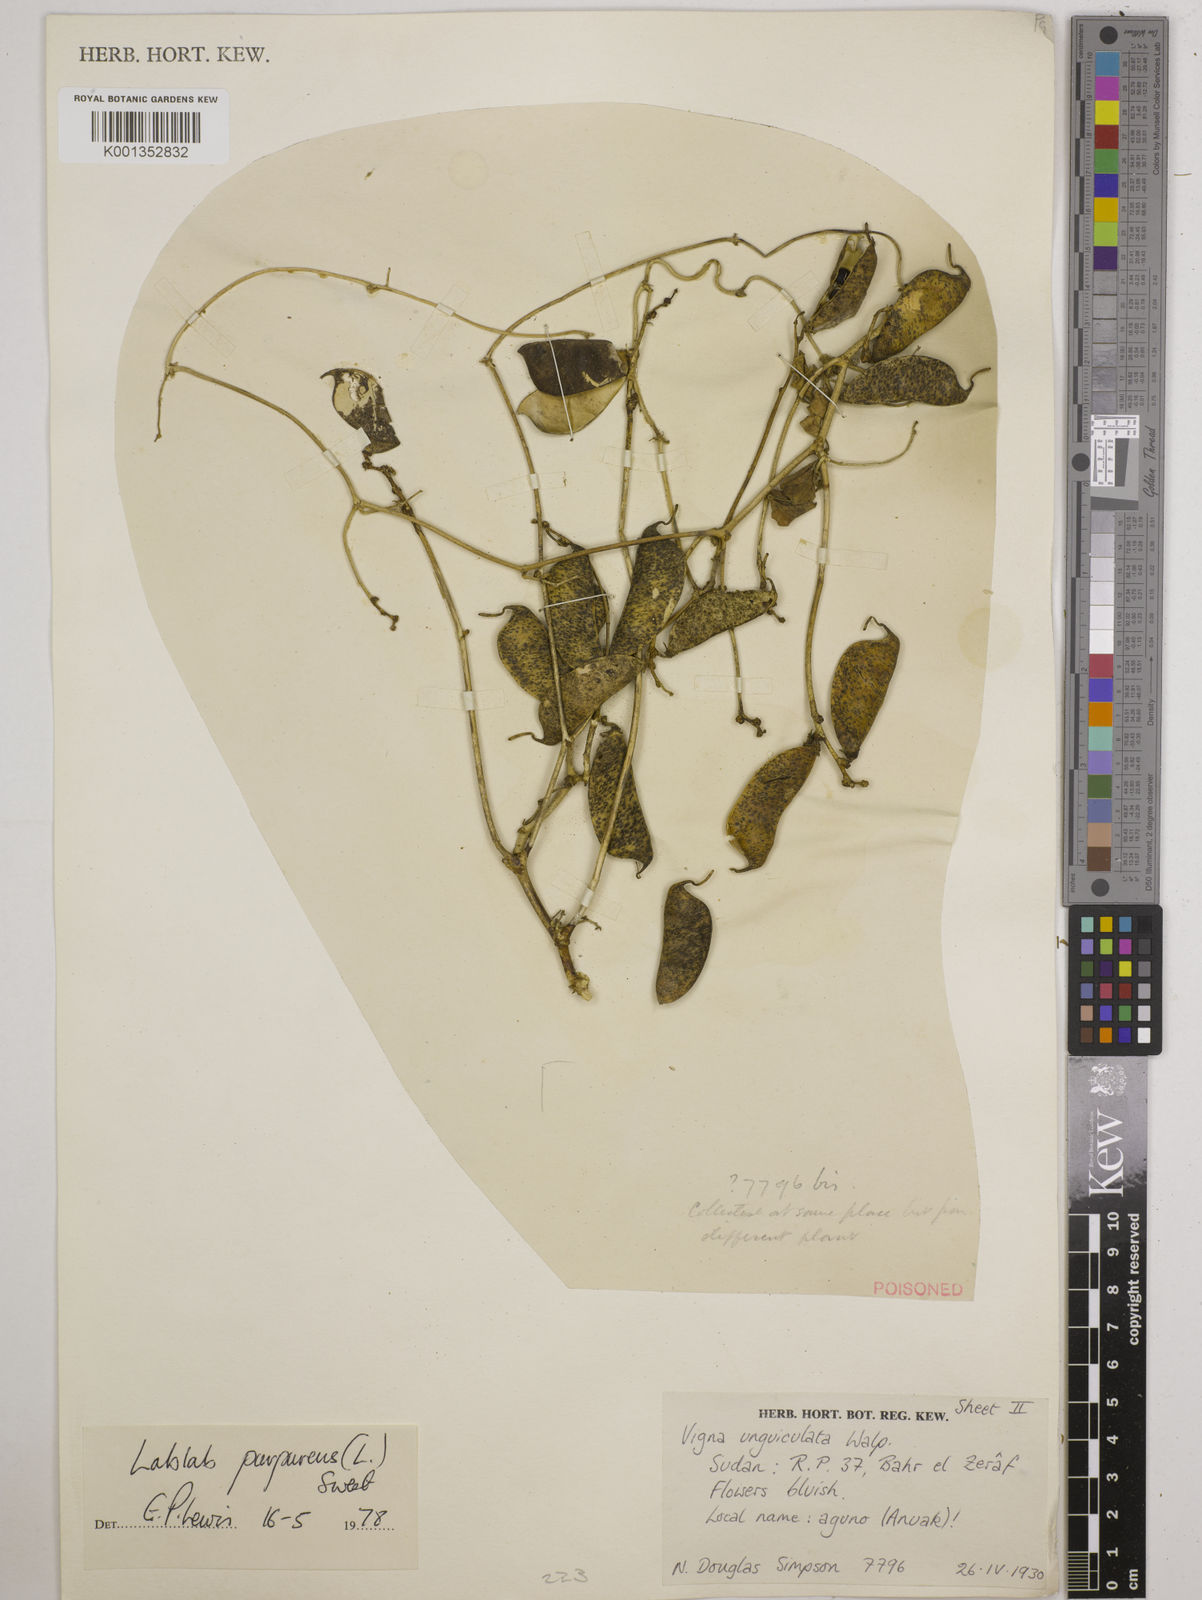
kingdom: Plantae
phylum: Tracheophyta
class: Magnoliopsida
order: Fabales
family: Fabaceae
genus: Lablab
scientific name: Lablab purpureus
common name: Lablab-bean
